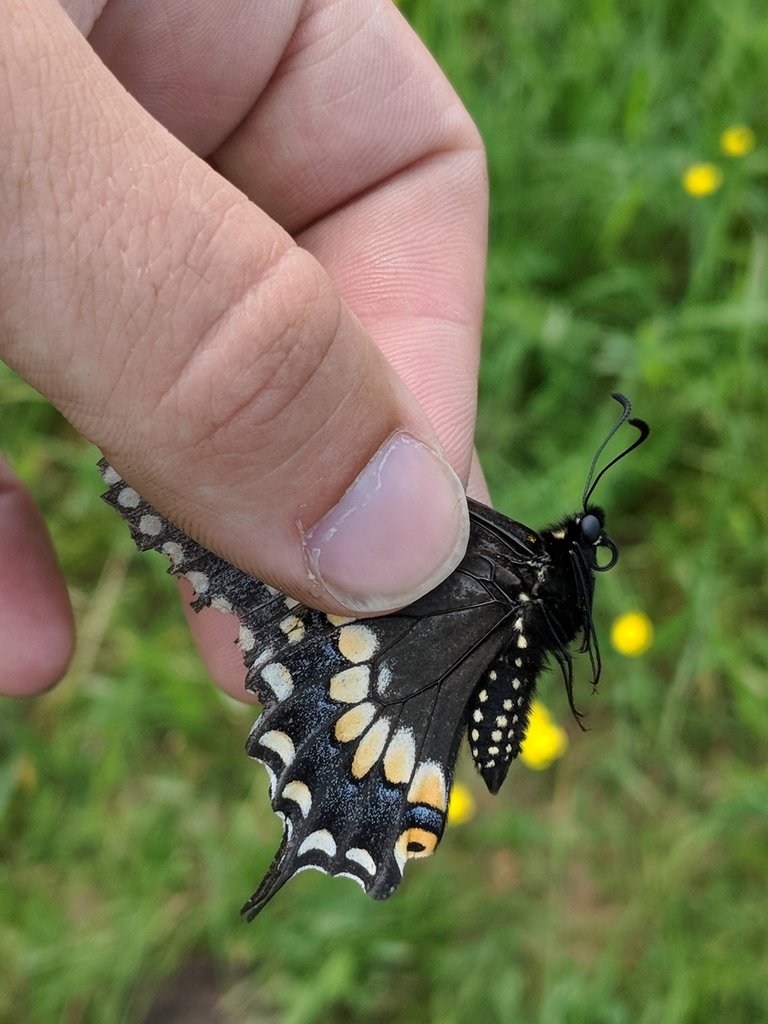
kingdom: Animalia
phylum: Arthropoda
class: Insecta
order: Lepidoptera
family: Papilionidae
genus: Papilio
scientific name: Papilio polyxenes
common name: Black Swallowtail
